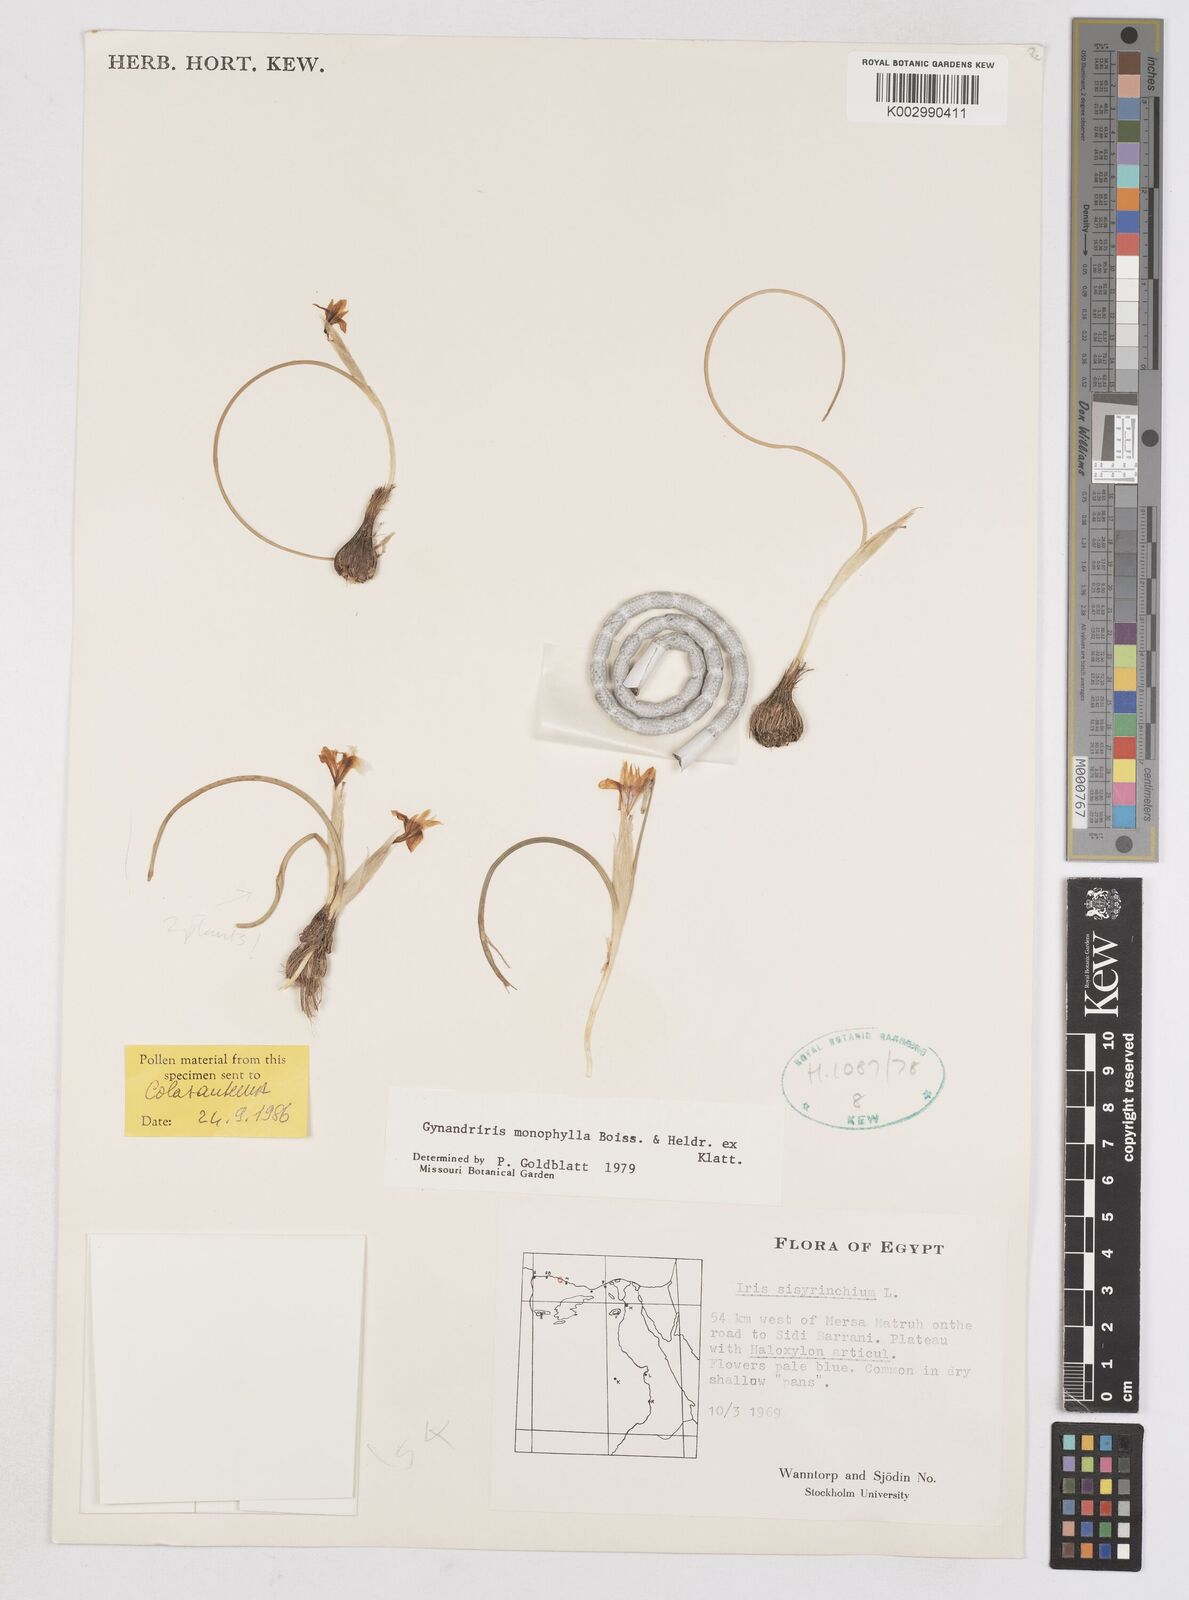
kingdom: Plantae
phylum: Tracheophyta
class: Liliopsida
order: Asparagales
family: Iridaceae
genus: Moraea
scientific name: Moraea
